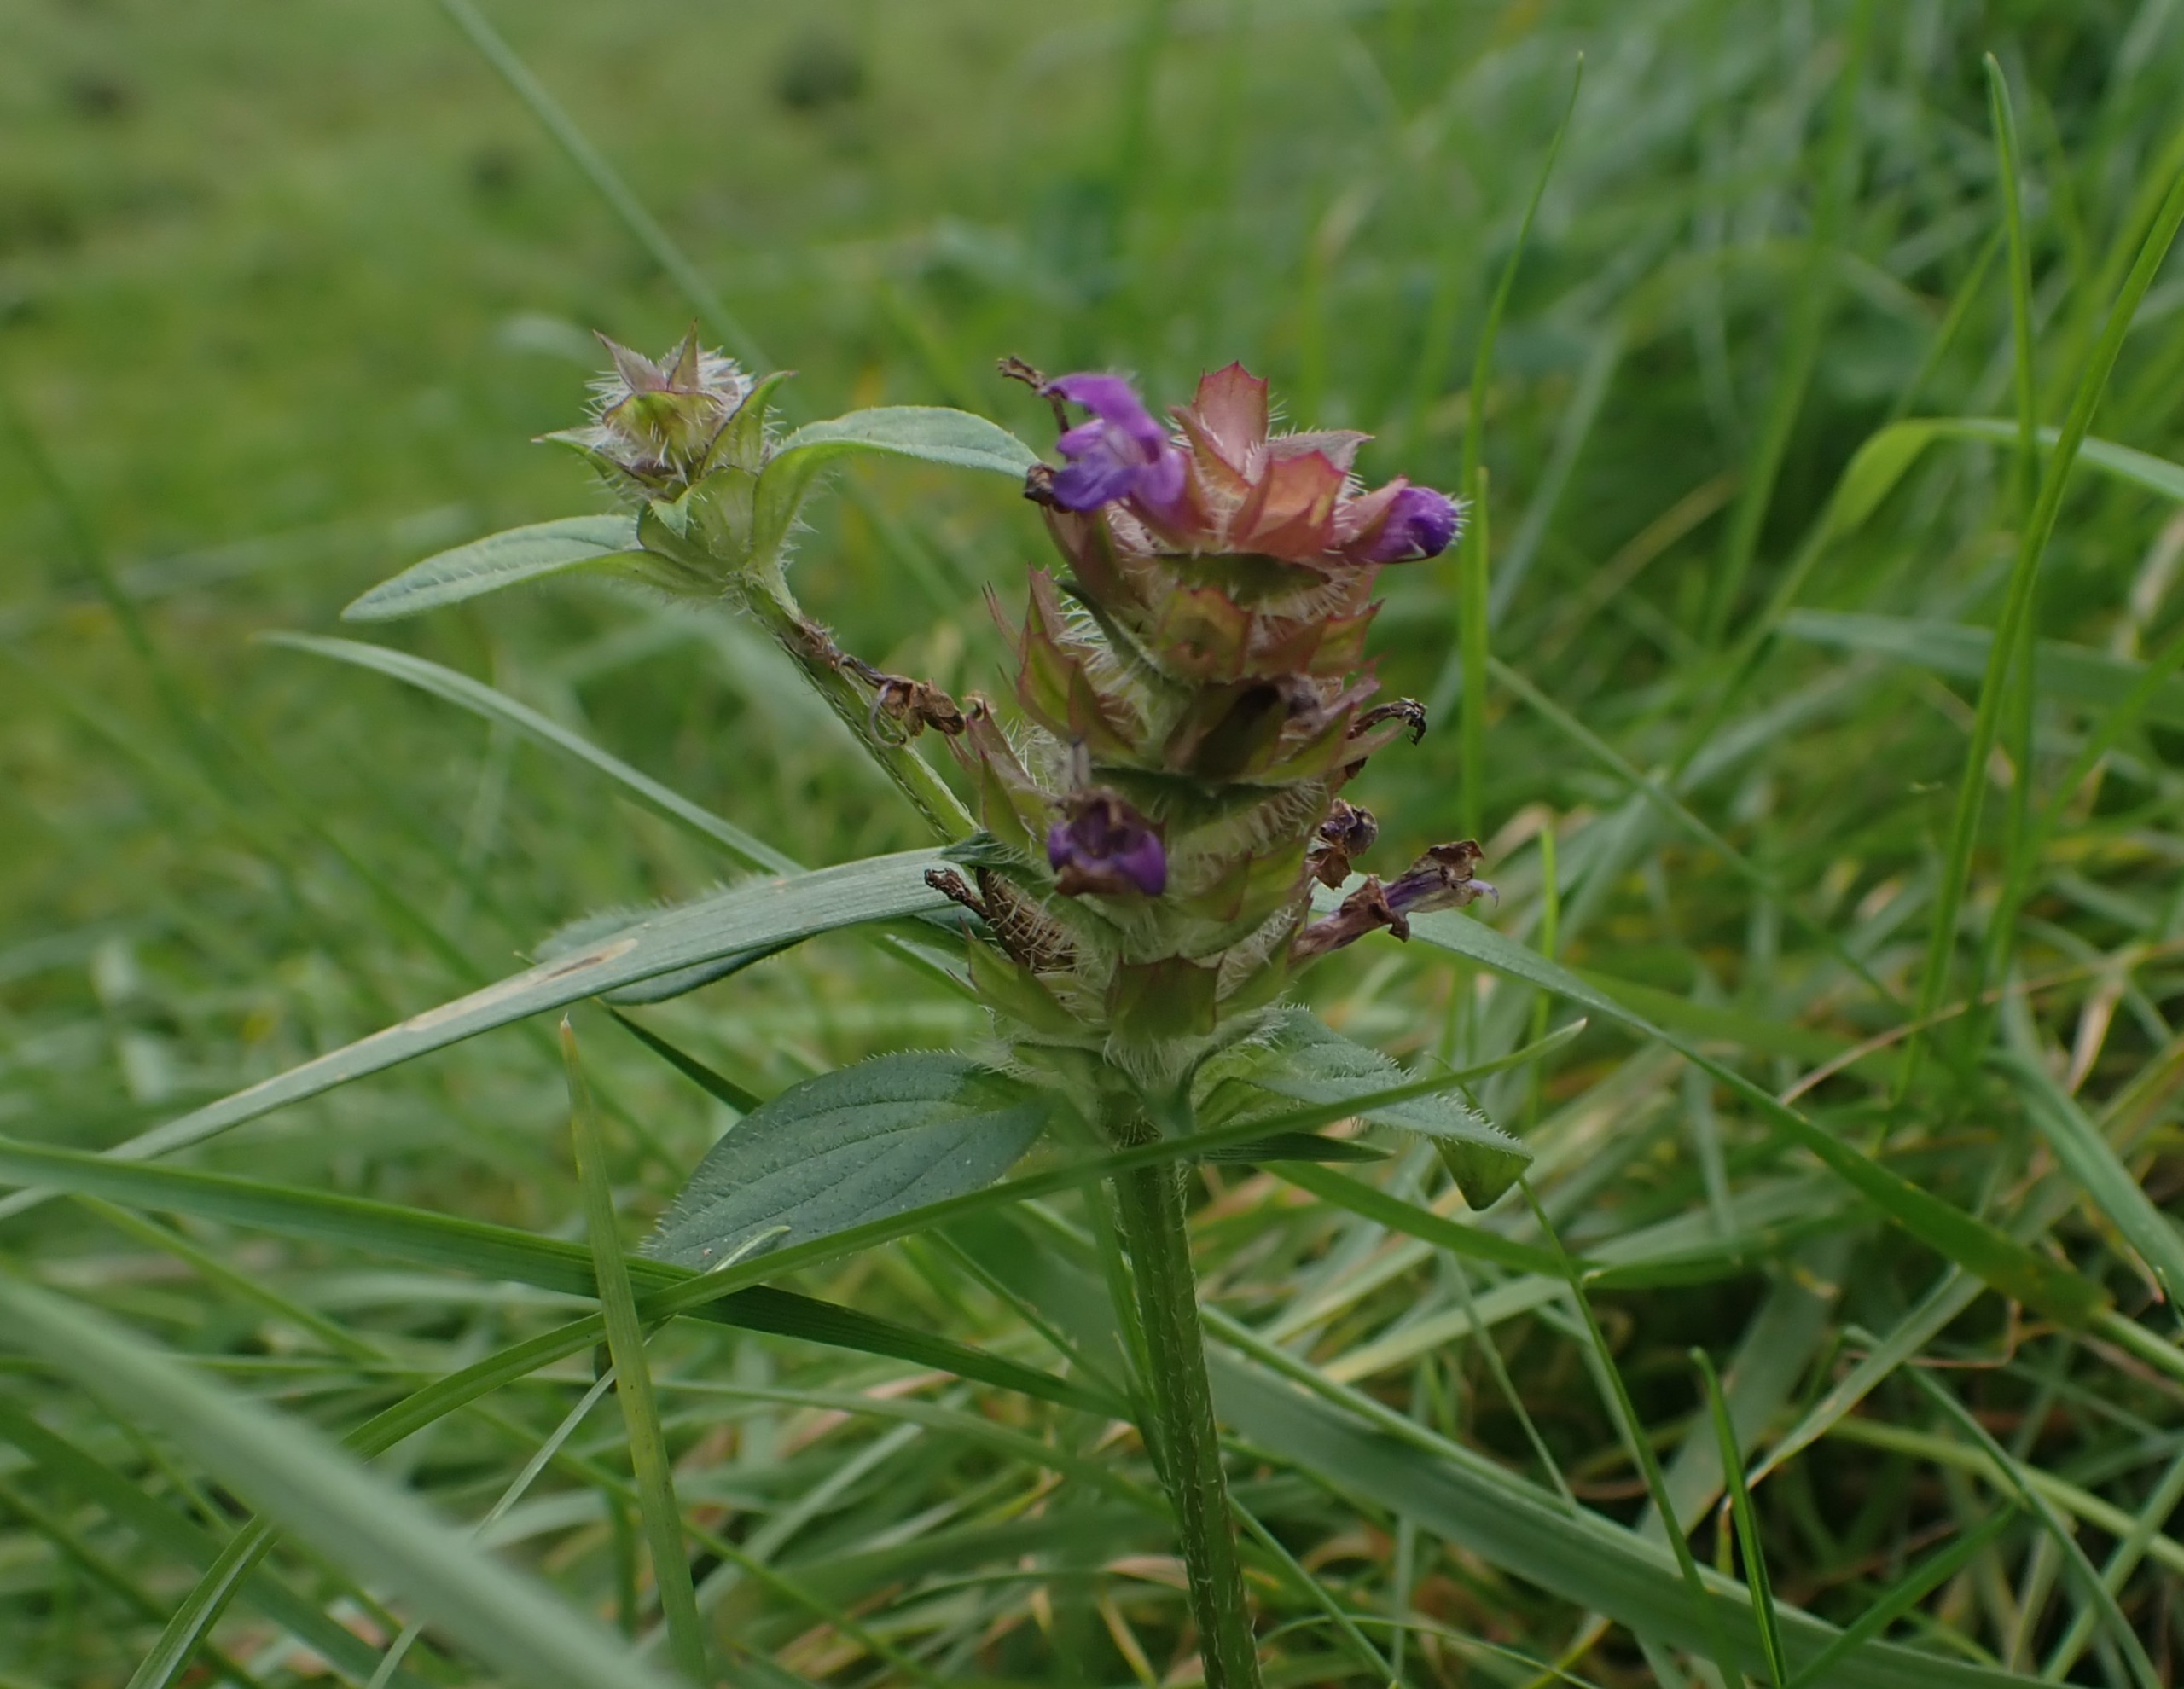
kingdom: Plantae
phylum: Tracheophyta
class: Magnoliopsida
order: Lamiales
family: Lamiaceae
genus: Prunella
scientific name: Prunella vulgaris
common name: Almindelig brunelle
